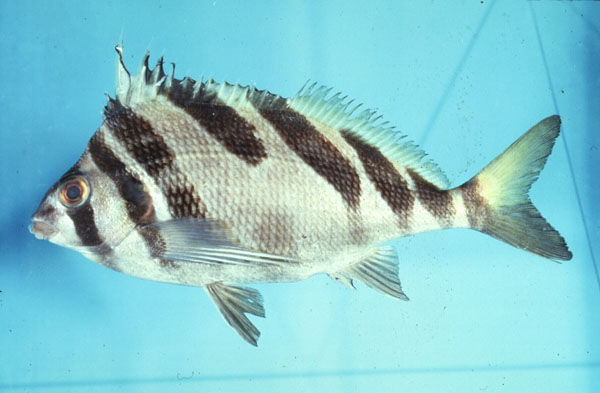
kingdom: Animalia
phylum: Chordata
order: Perciformes
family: Cheilodactylidae
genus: Cheilodactylus
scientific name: Cheilodactylus zebra
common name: Redlip morwong
